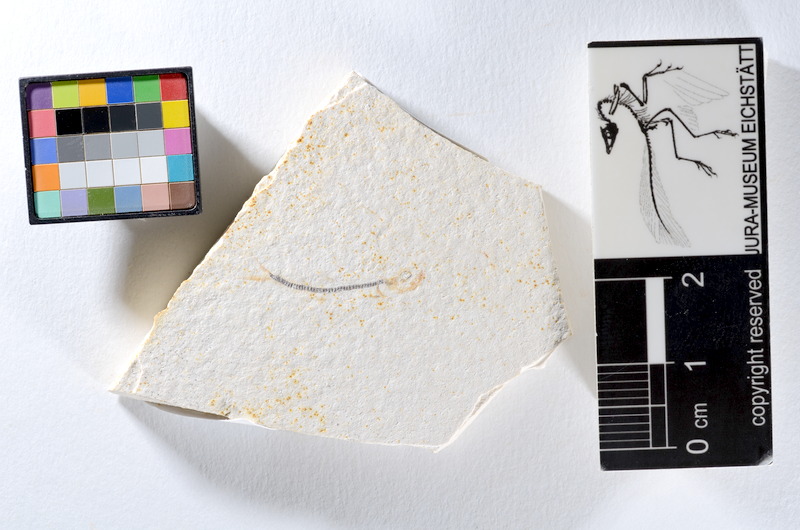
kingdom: Animalia
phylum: Chordata
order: Salmoniformes
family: Orthogonikleithridae
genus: Orthogonikleithrus
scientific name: Orthogonikleithrus hoelli
